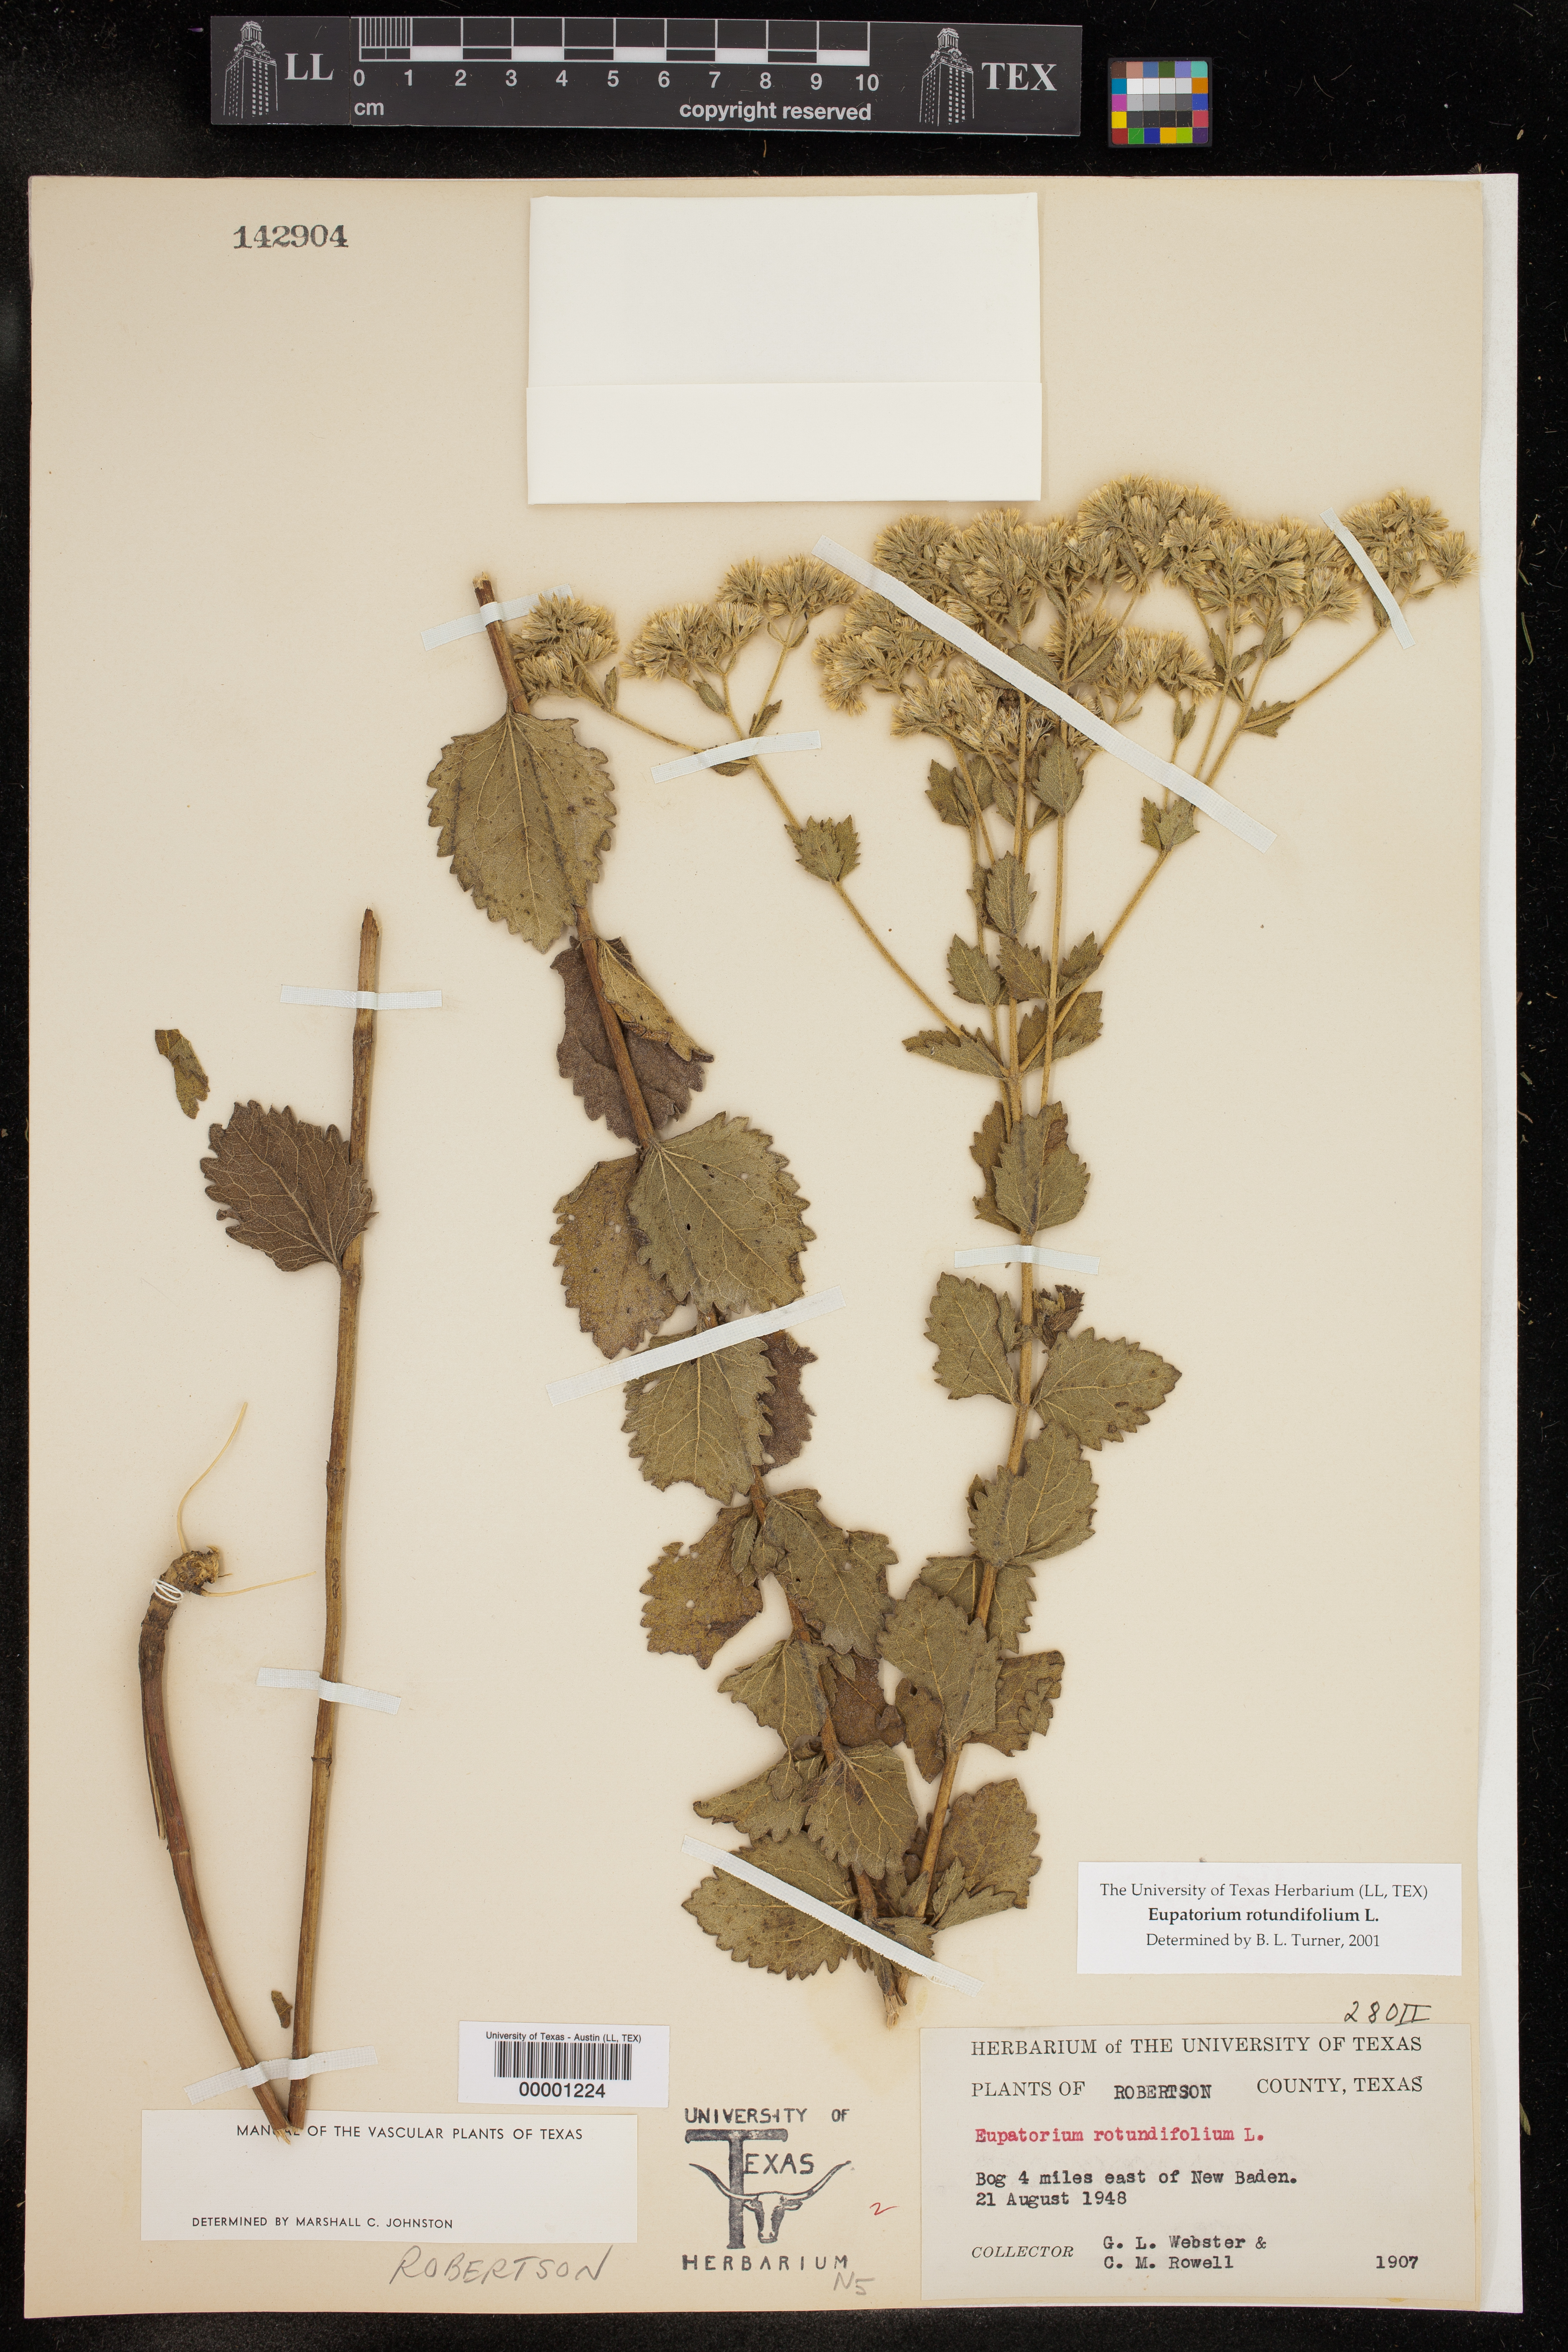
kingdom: Plantae
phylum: Tracheophyta
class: Magnoliopsida
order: Asterales
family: Asteraceae
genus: Eupatorium
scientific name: Eupatorium rotundifolium
